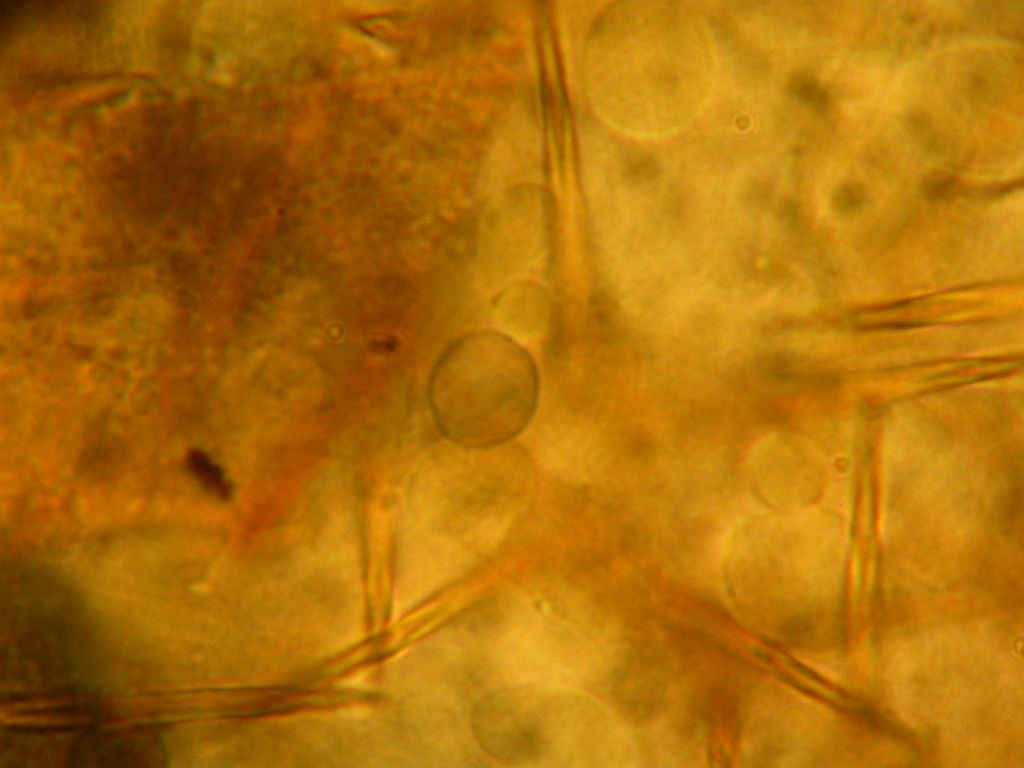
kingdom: Fungi
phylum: Basidiomycota
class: Agaricomycetes
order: Russulales
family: Peniophoraceae
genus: Asterostroma
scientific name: Asterostroma laxum
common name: lysrandet stjerneskind
